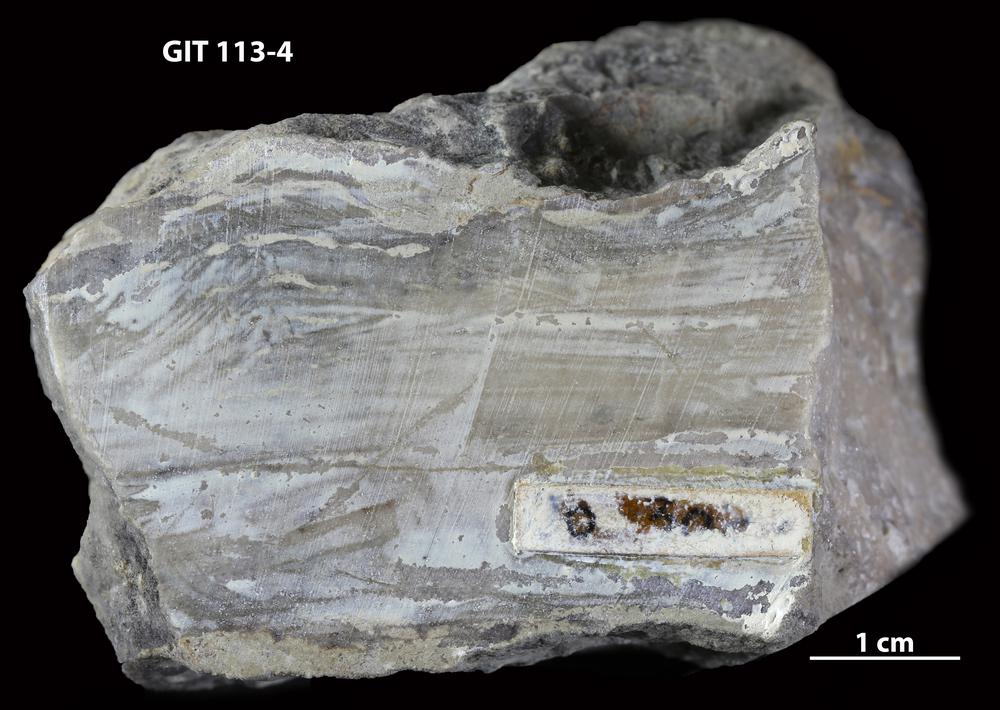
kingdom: Animalia
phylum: Porifera
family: Stromatoceriidae
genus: Cystistroma
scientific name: Cystistroma Stromatocerium canadense
